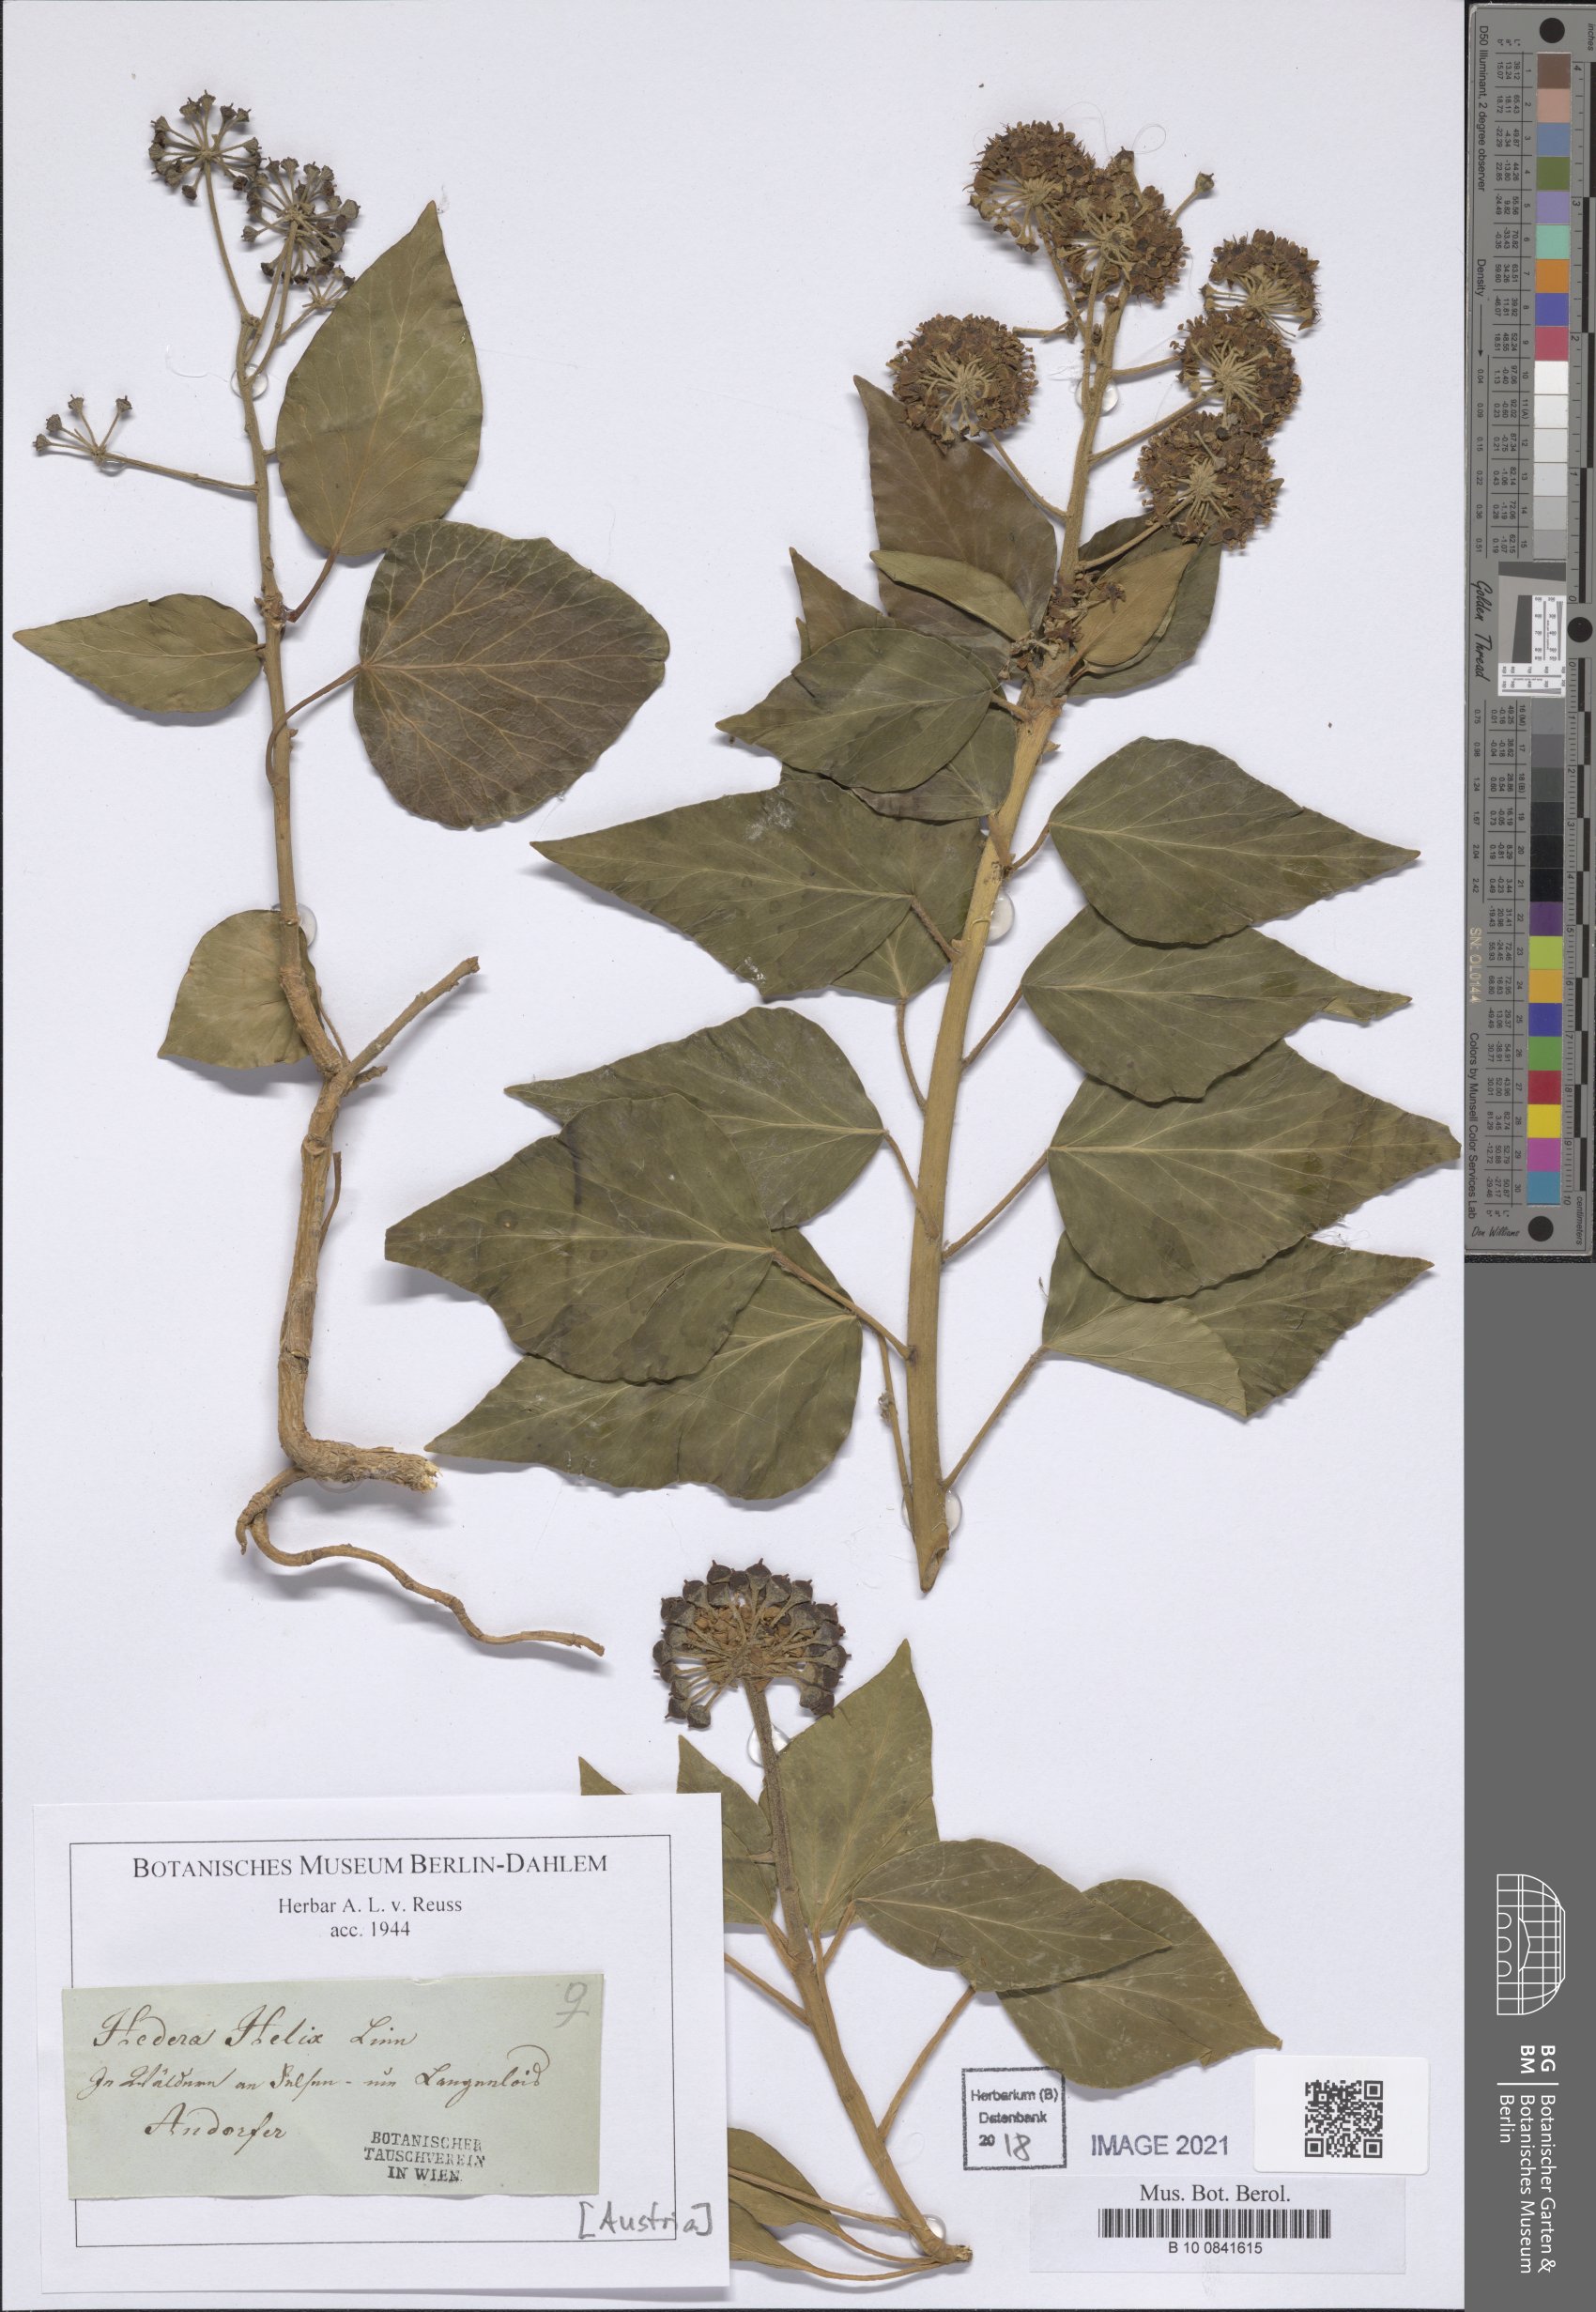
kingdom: Plantae
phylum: Tracheophyta
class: Magnoliopsida
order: Apiales
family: Araliaceae
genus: Hedera
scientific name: Hedera helix
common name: Ivy
